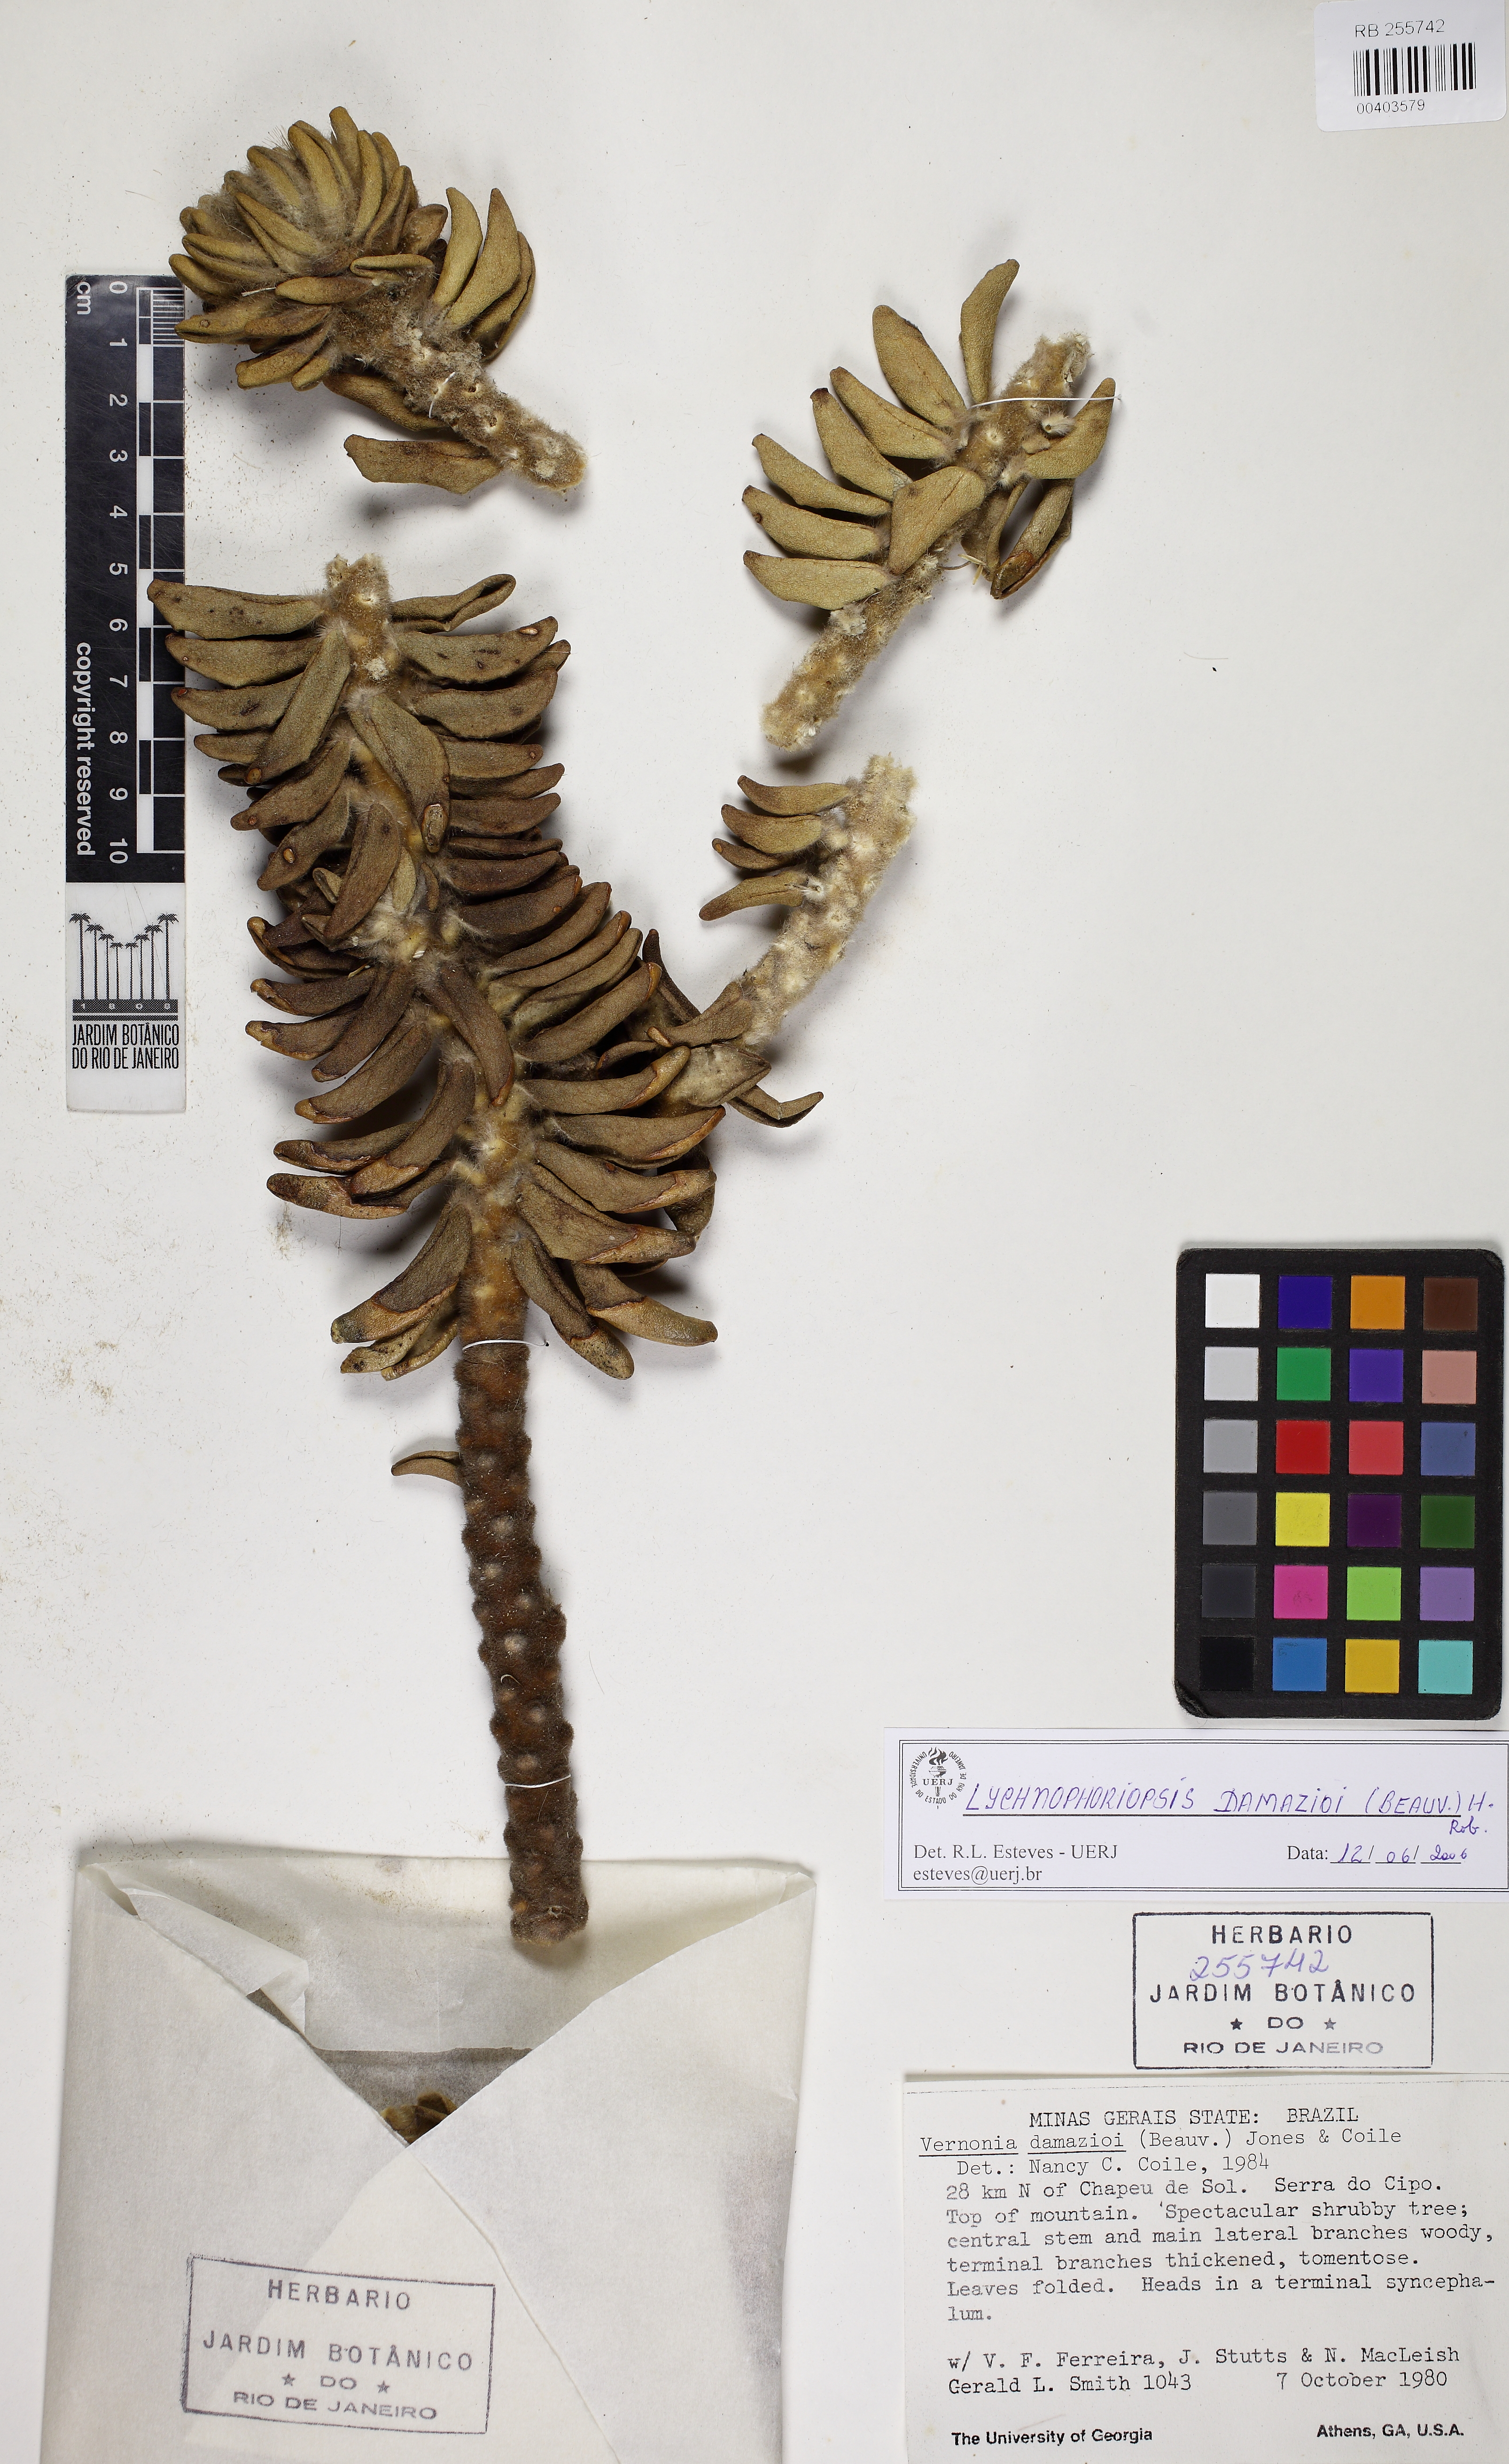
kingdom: Plantae
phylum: Tracheophyta
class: Magnoliopsida
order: Asterales
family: Asteraceae
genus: Lychnophora
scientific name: Lychnophora damazioi
